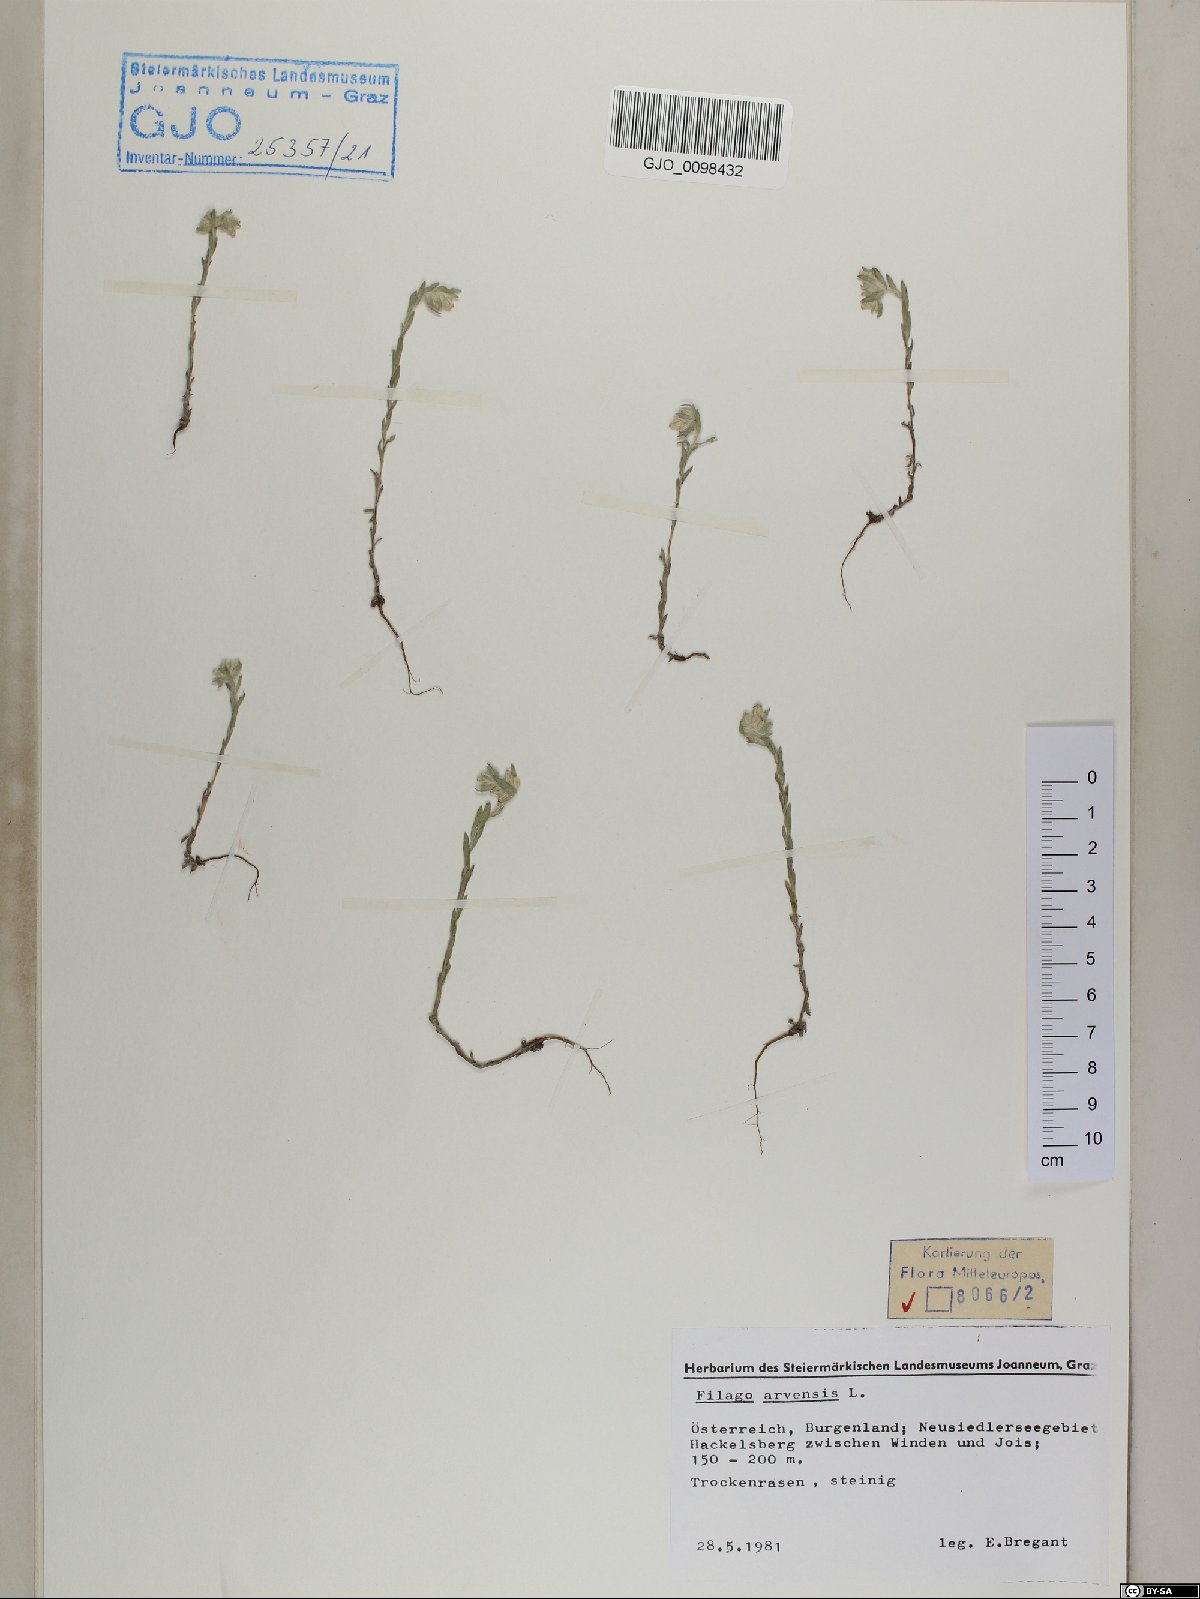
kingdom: Plantae
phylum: Tracheophyta
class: Magnoliopsida
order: Asterales
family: Asteraceae
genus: Filago
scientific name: Filago arvensis
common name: Field cudweed
